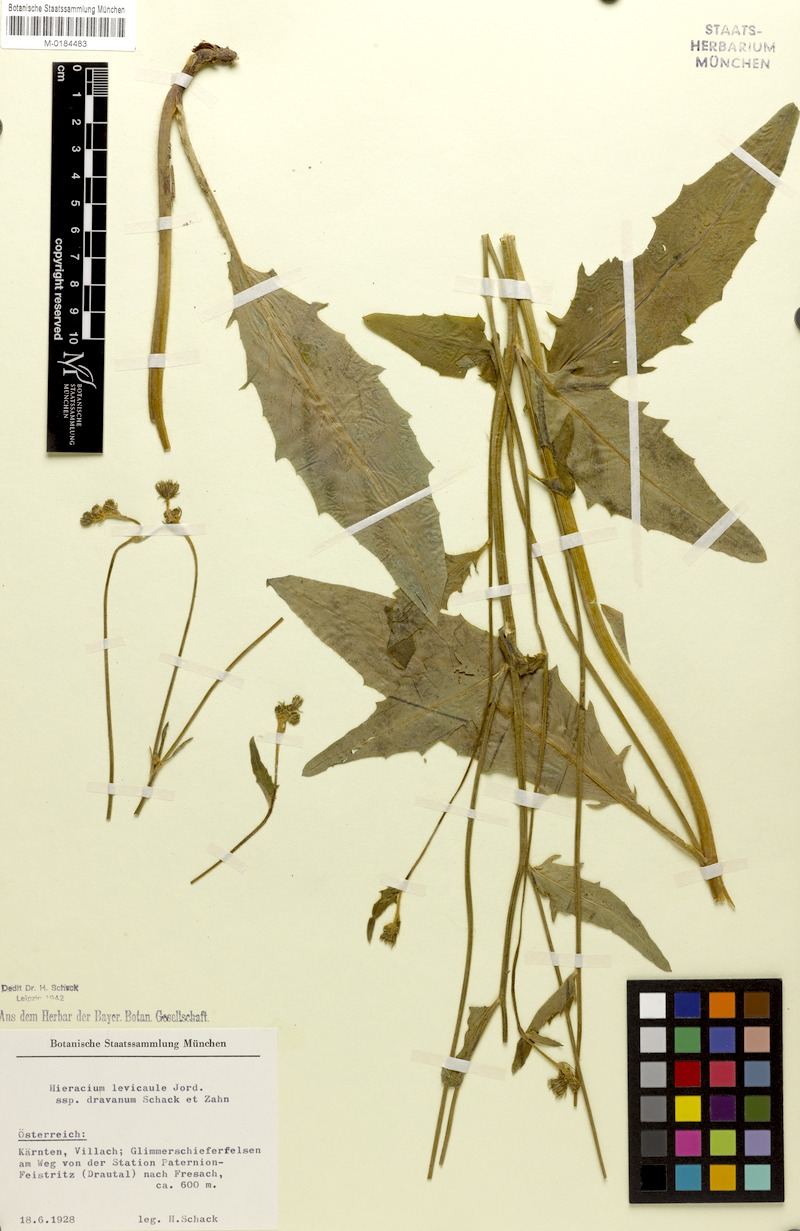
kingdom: Plantae
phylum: Tracheophyta
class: Magnoliopsida
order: Asterales
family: Asteraceae
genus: Hieracium
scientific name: Hieracium levicaule
